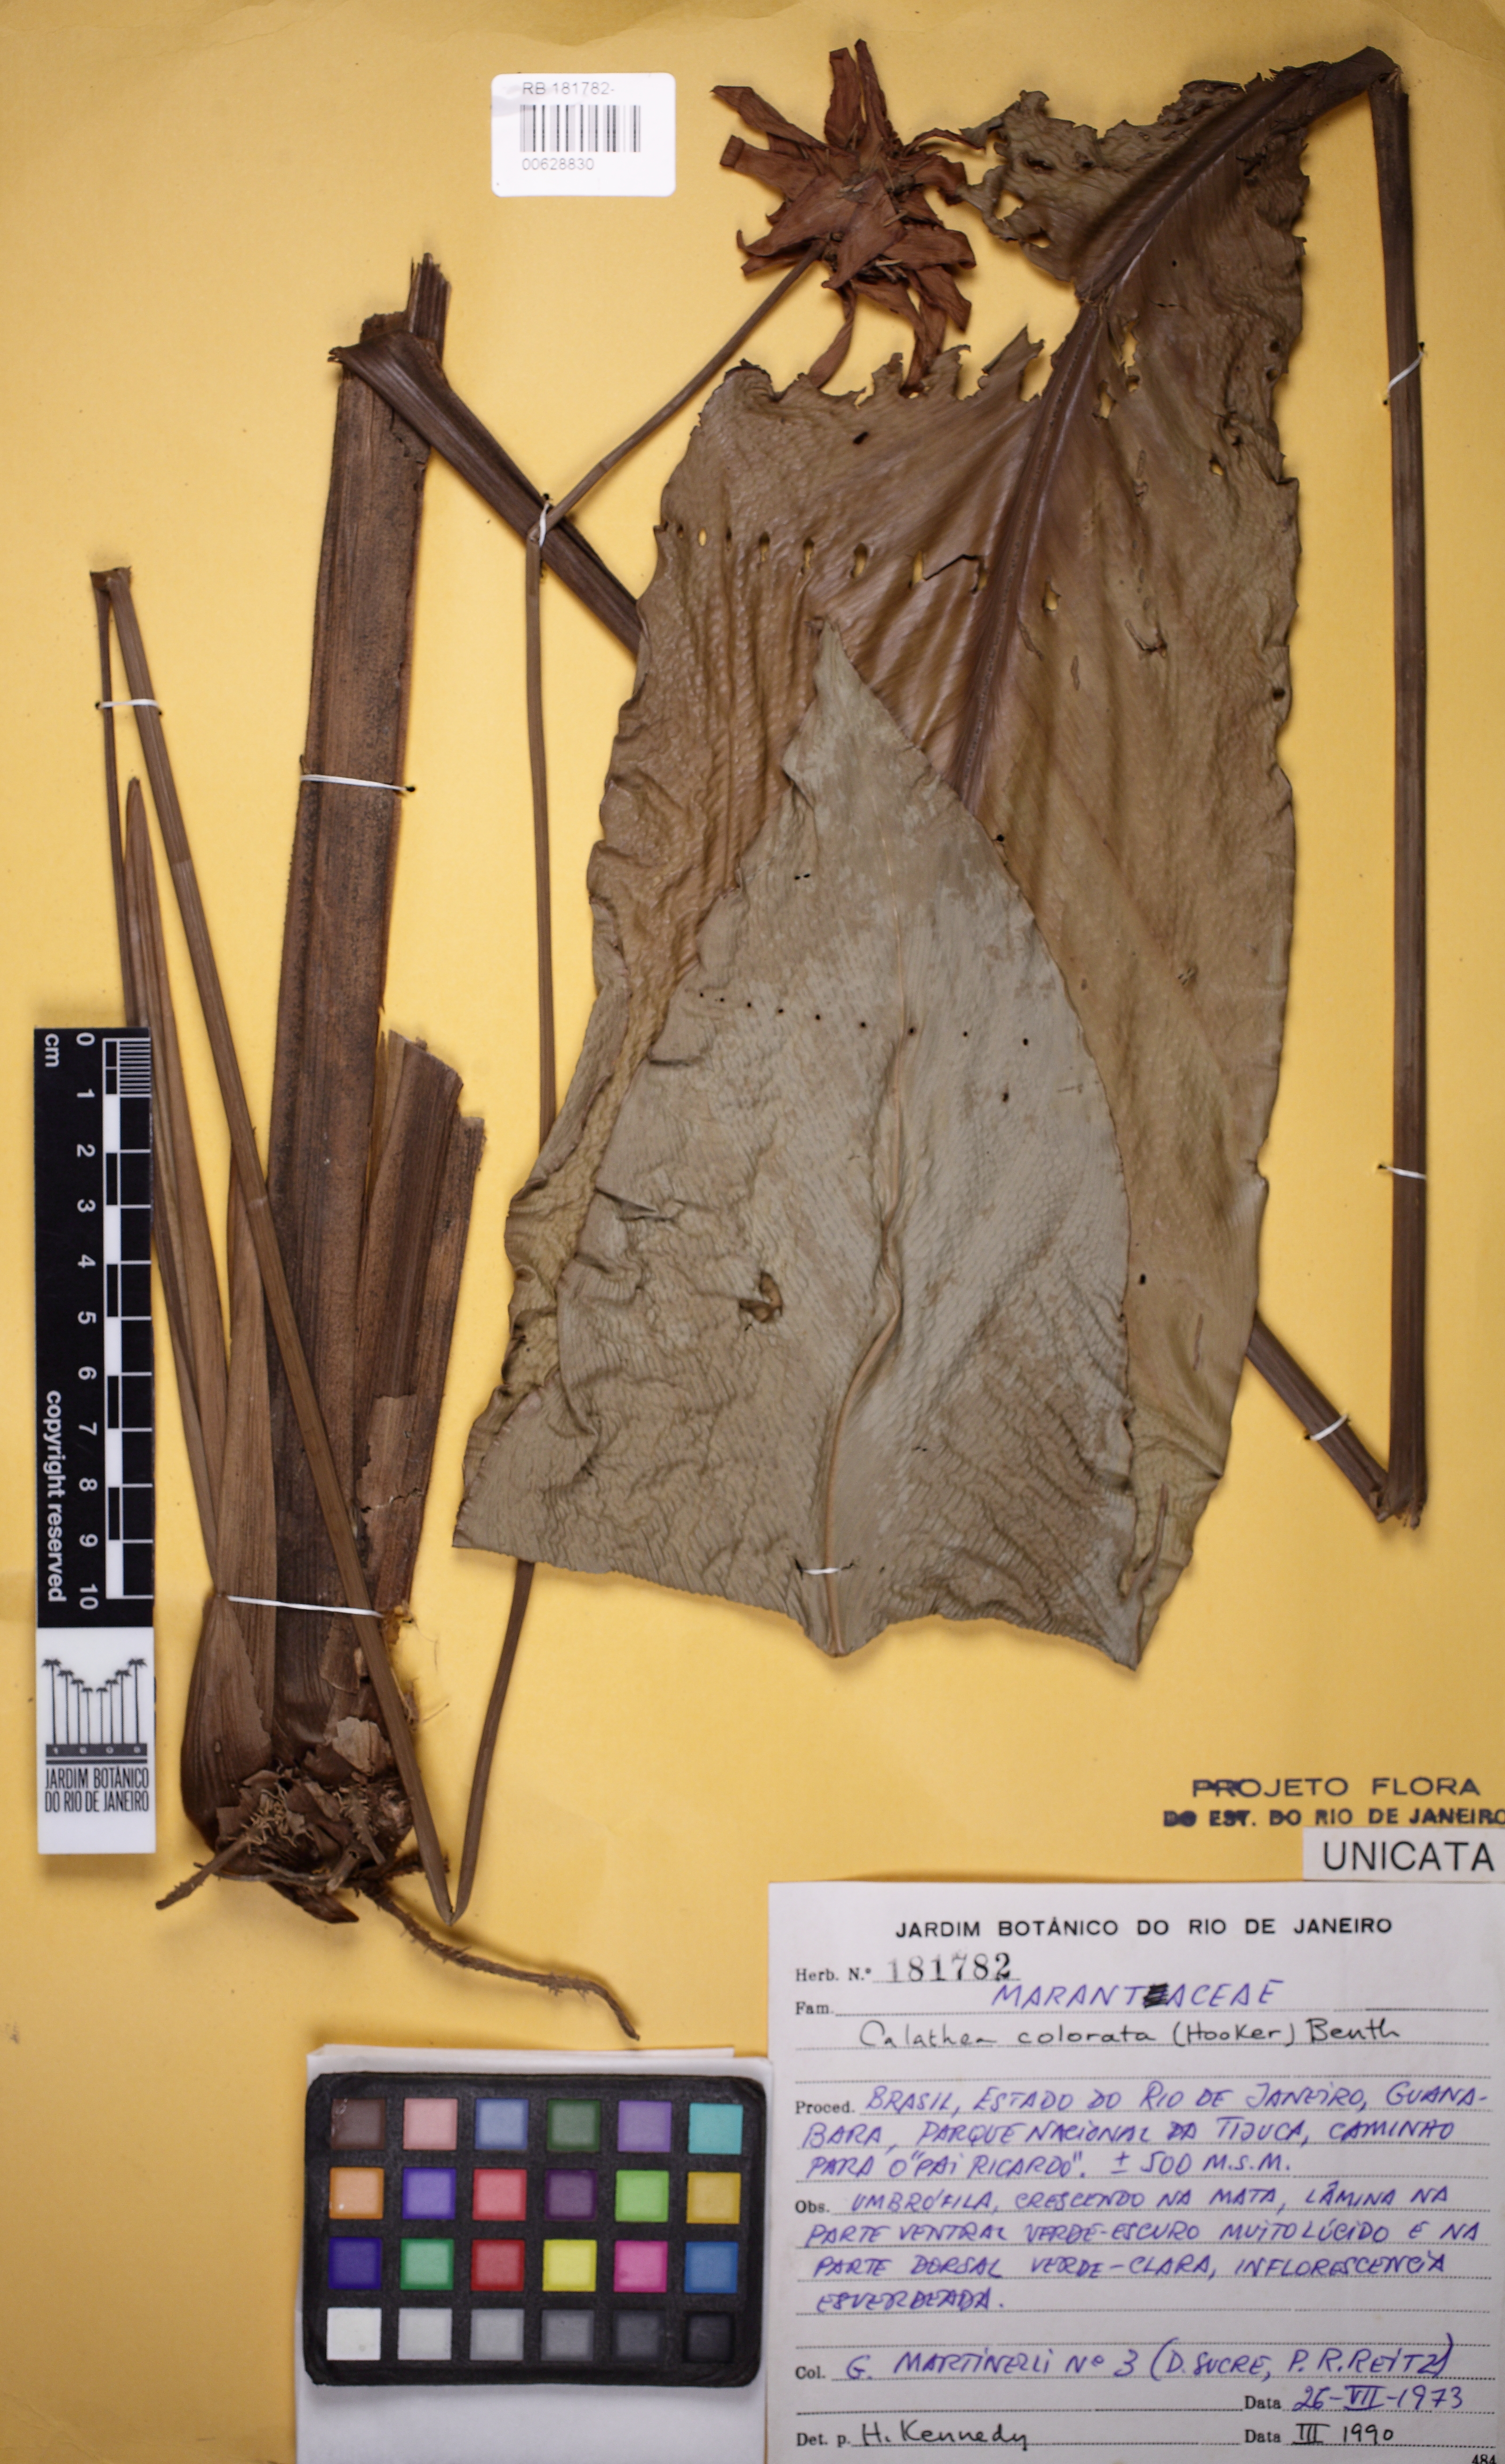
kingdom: Plantae
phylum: Tracheophyta
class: Liliopsida
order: Zingiberales
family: Marantaceae
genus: Goeppertia
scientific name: Goeppertia colorata
